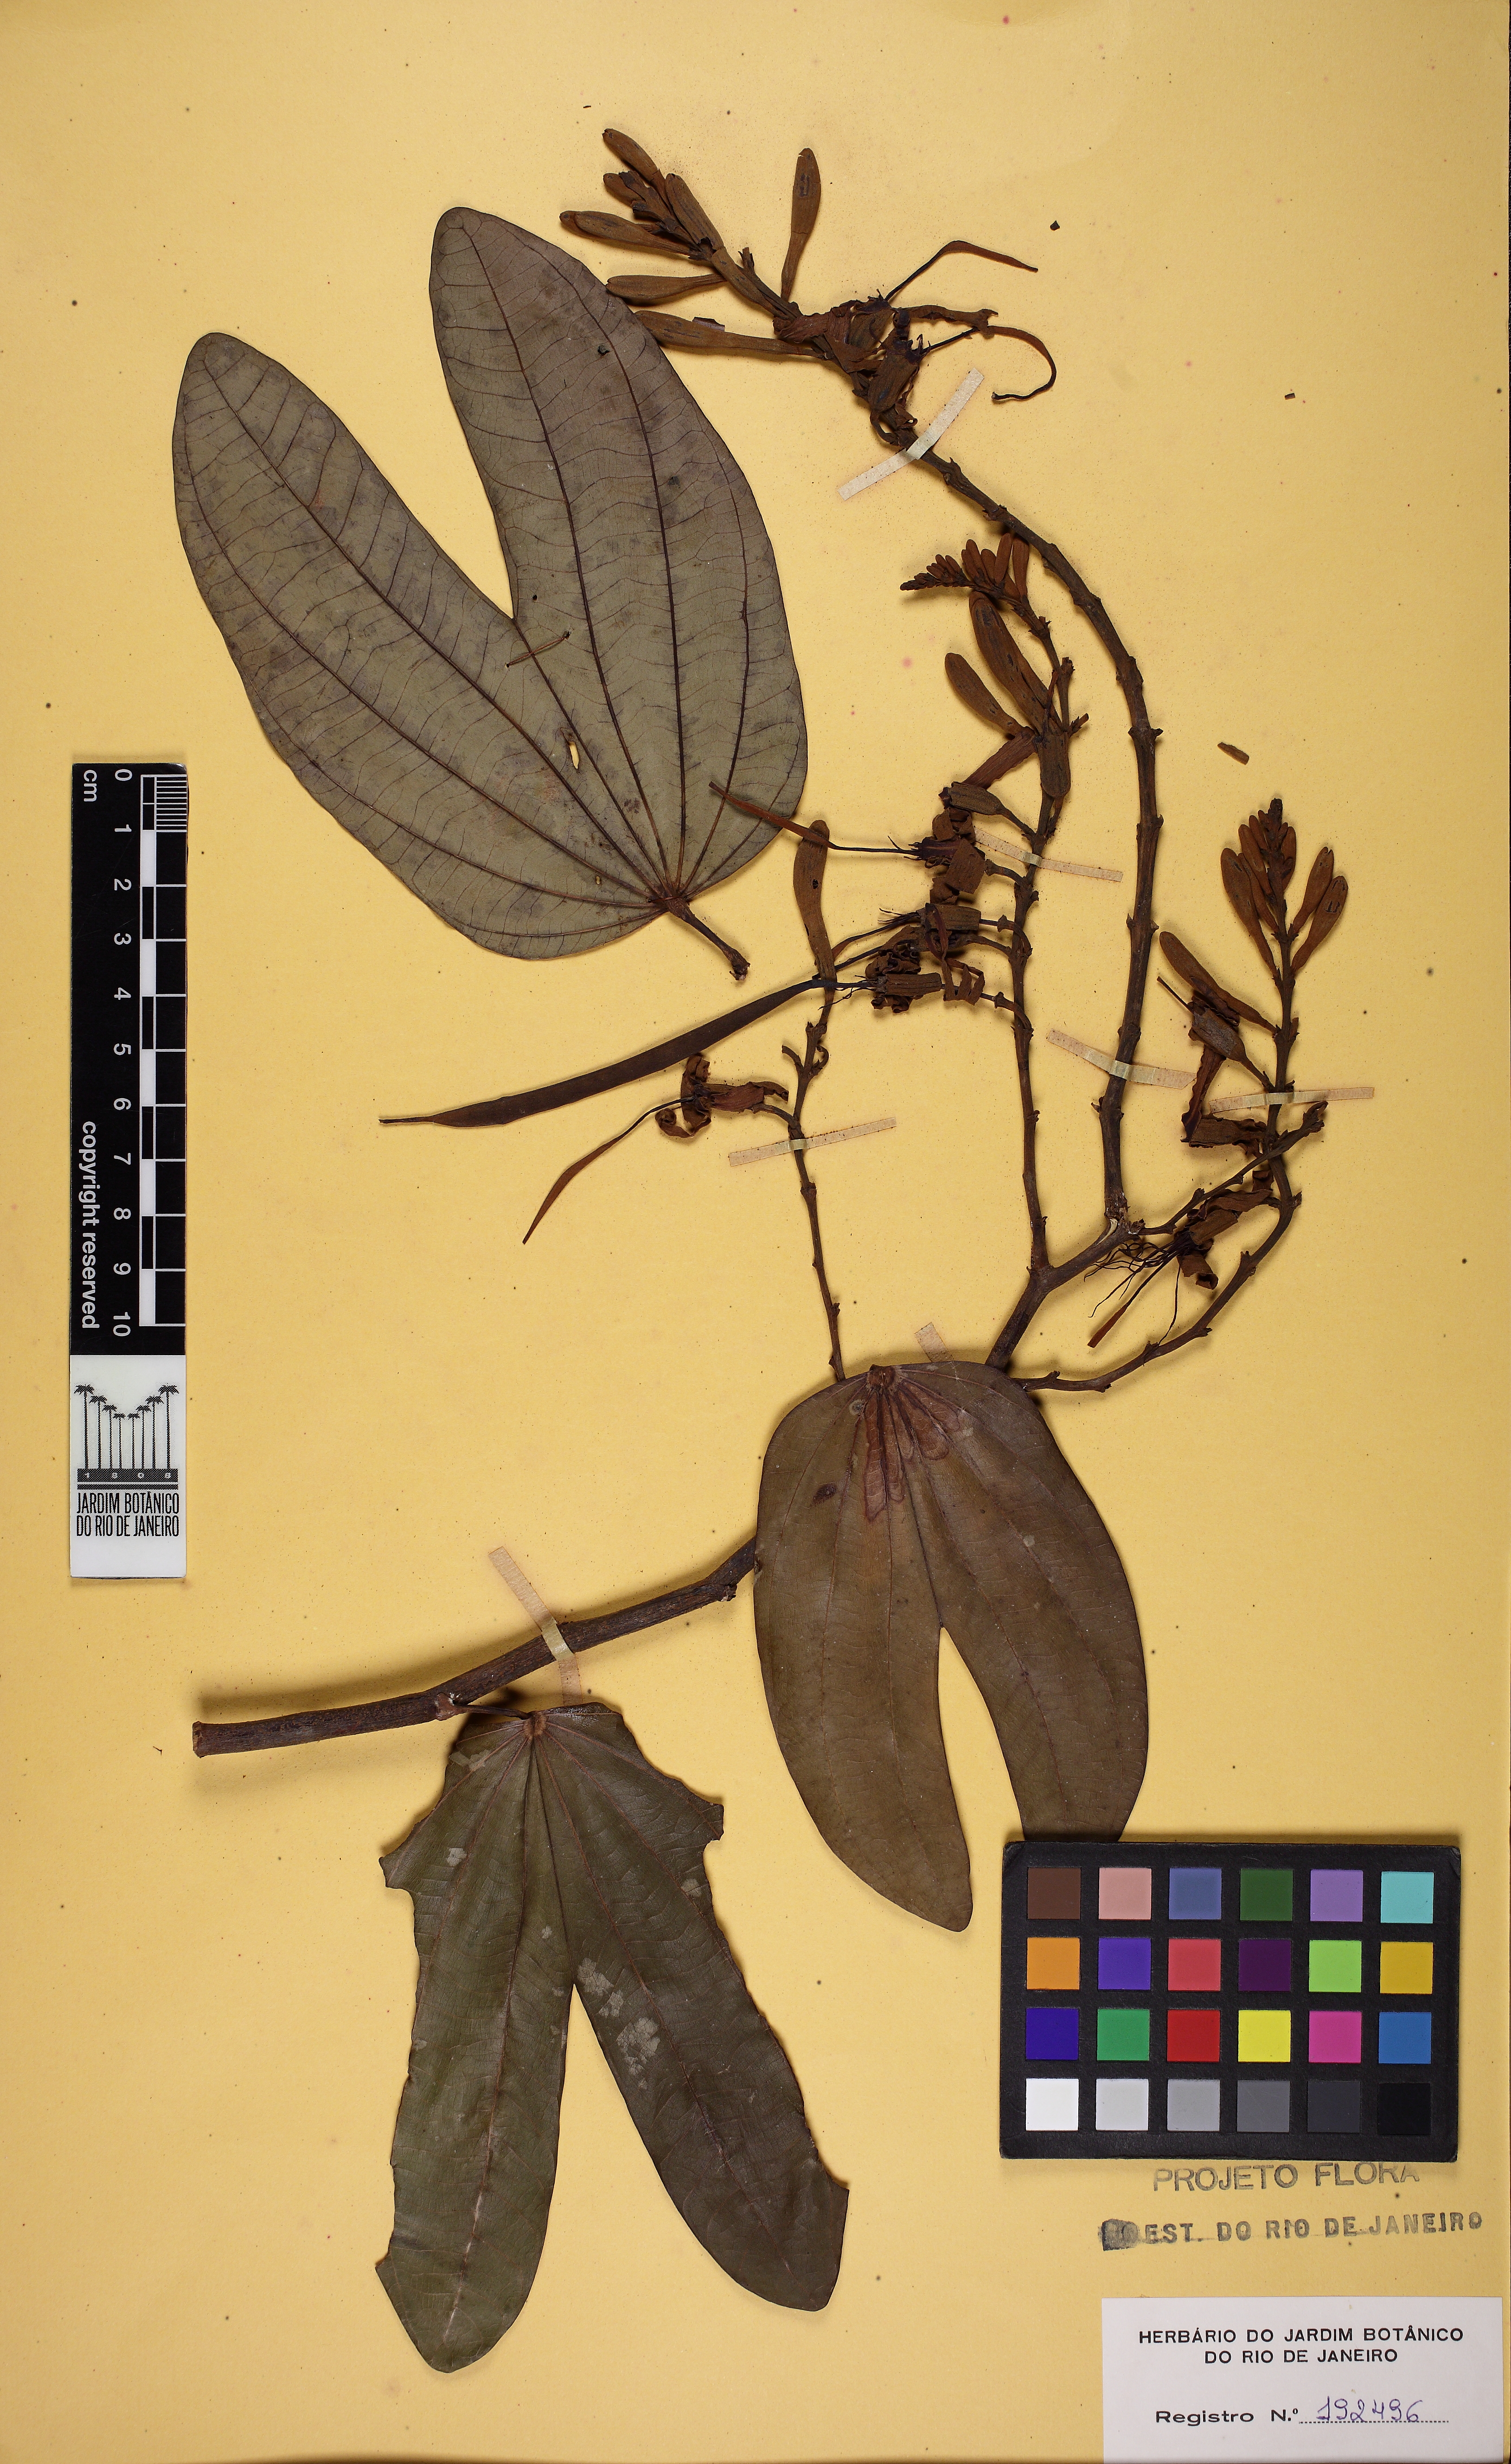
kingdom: Plantae
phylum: Tracheophyta
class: Magnoliopsida
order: Fabales
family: Fabaceae
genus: Bauhinia
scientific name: Bauhinia ungulata
